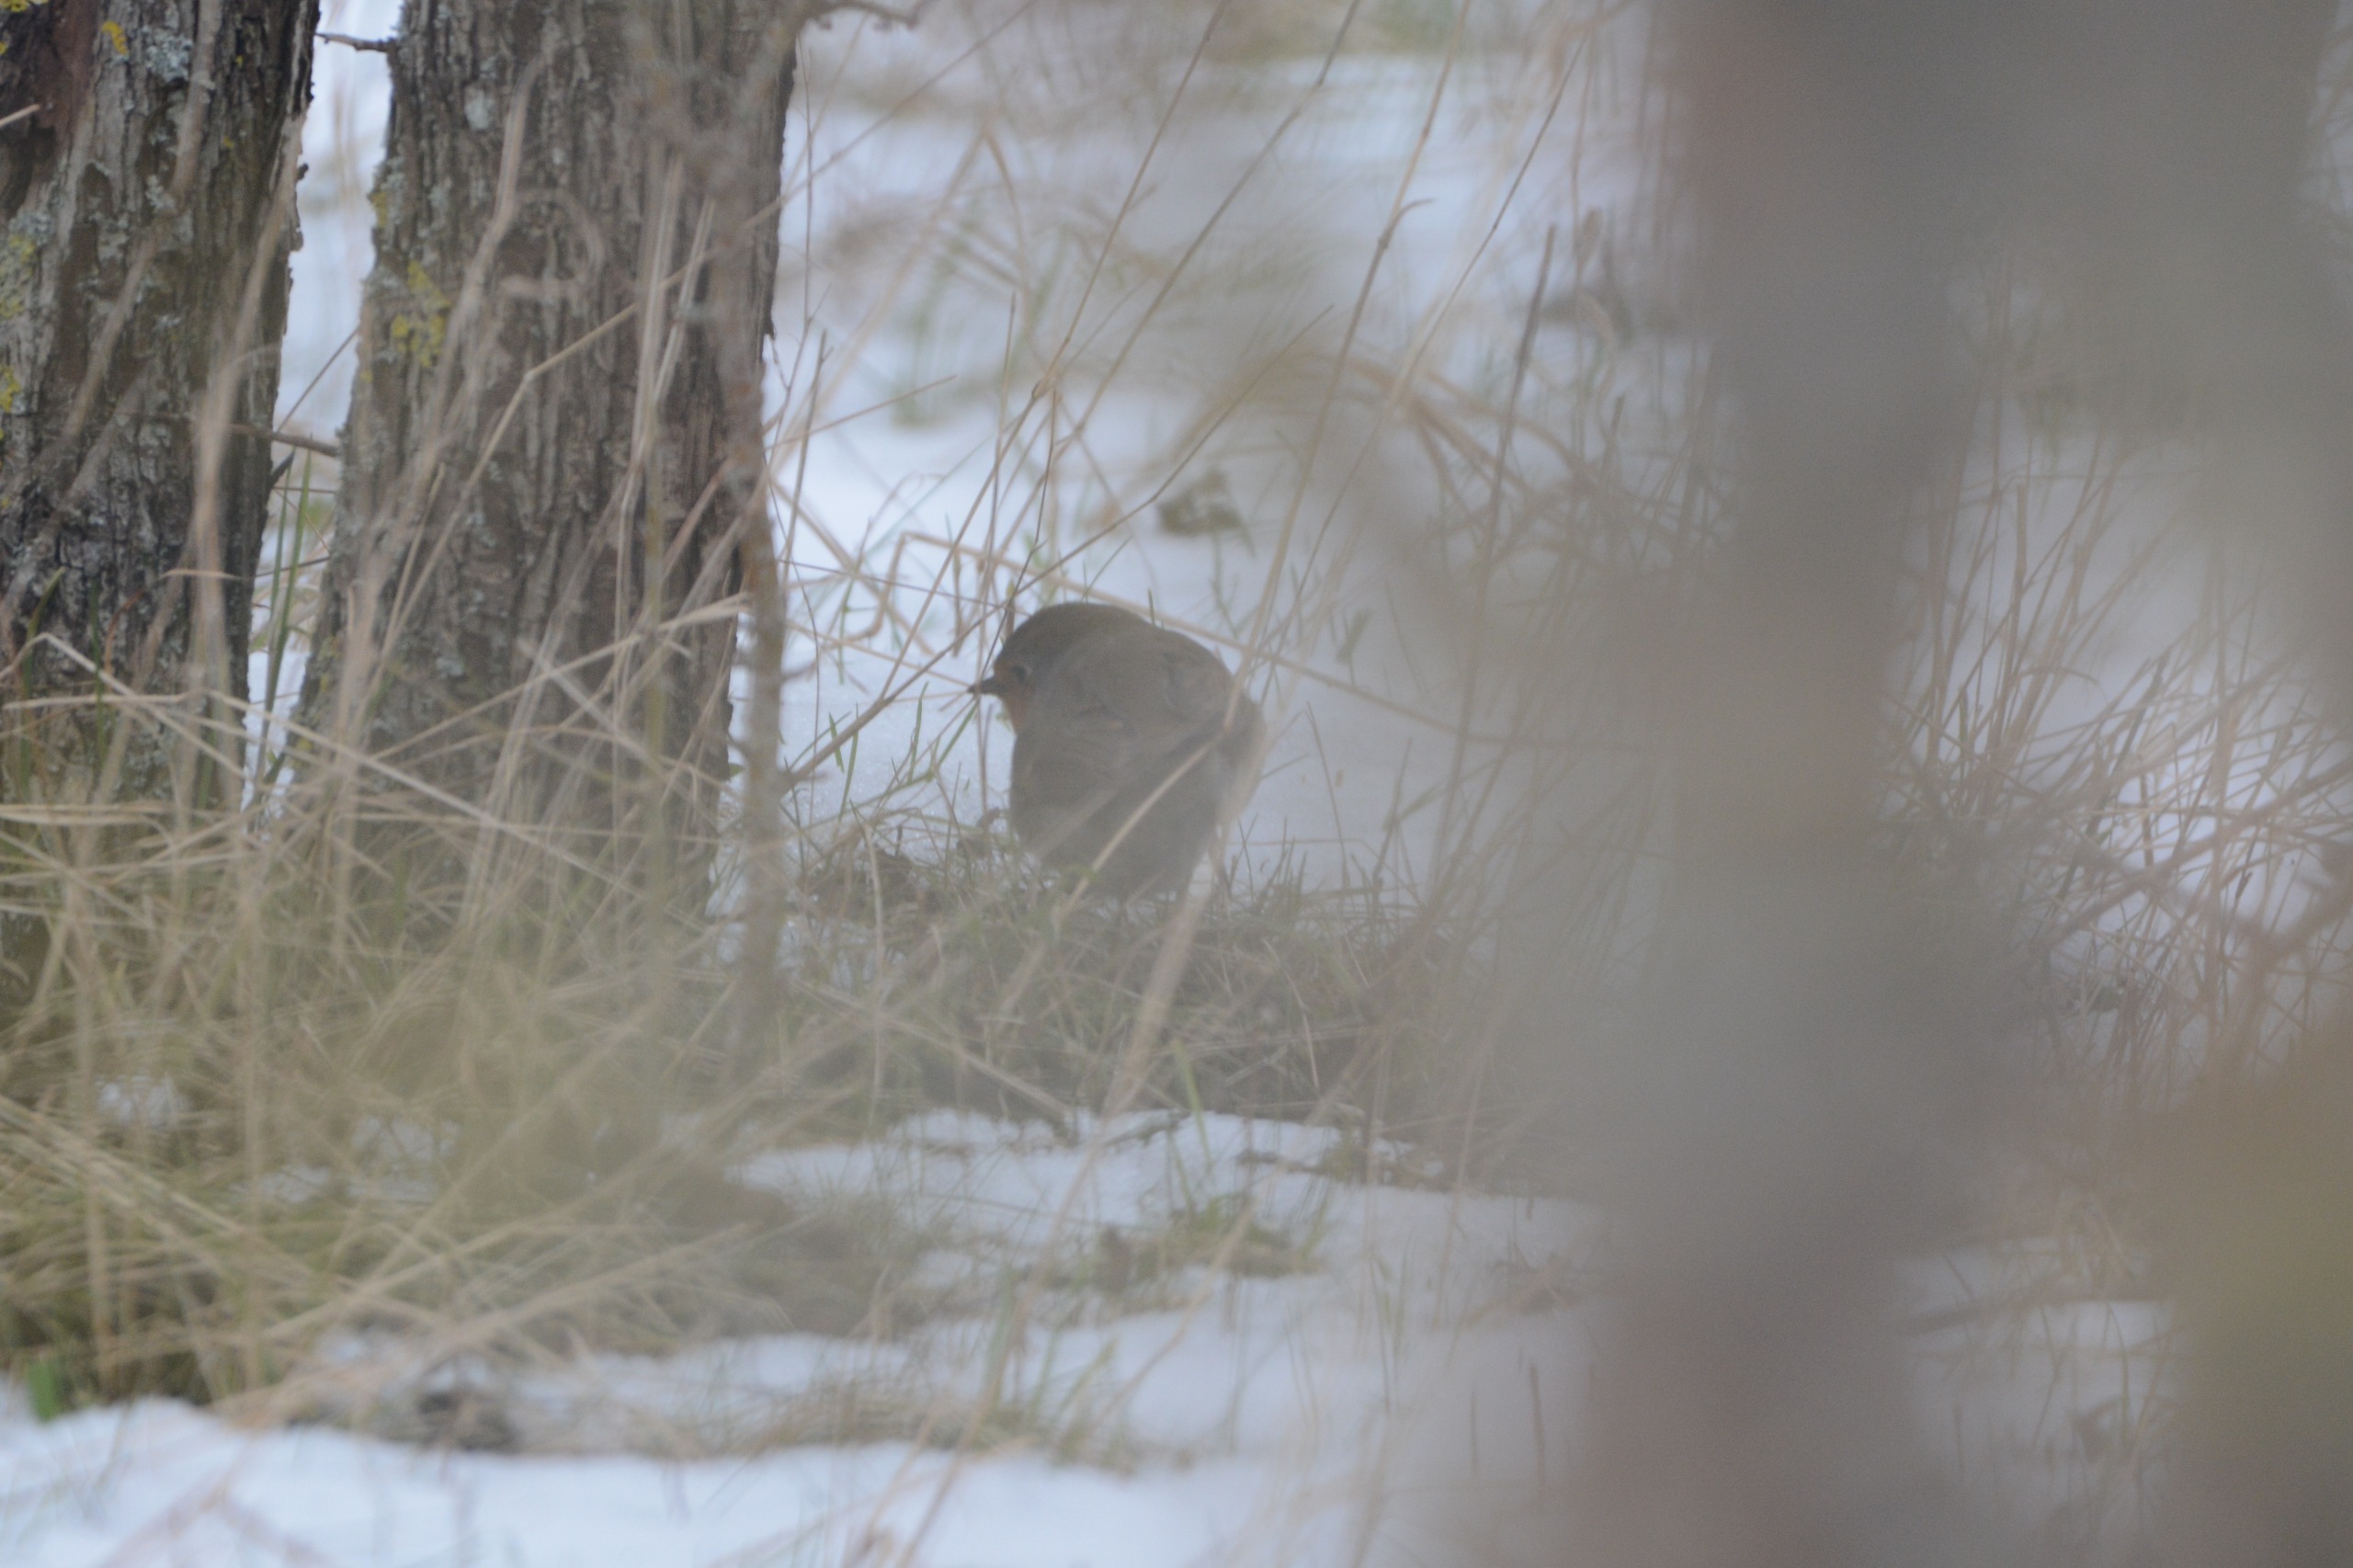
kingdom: Animalia
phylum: Chordata
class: Aves
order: Passeriformes
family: Muscicapidae
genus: Erithacus
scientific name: Erithacus rubecula
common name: Rødhals/rødkælk
